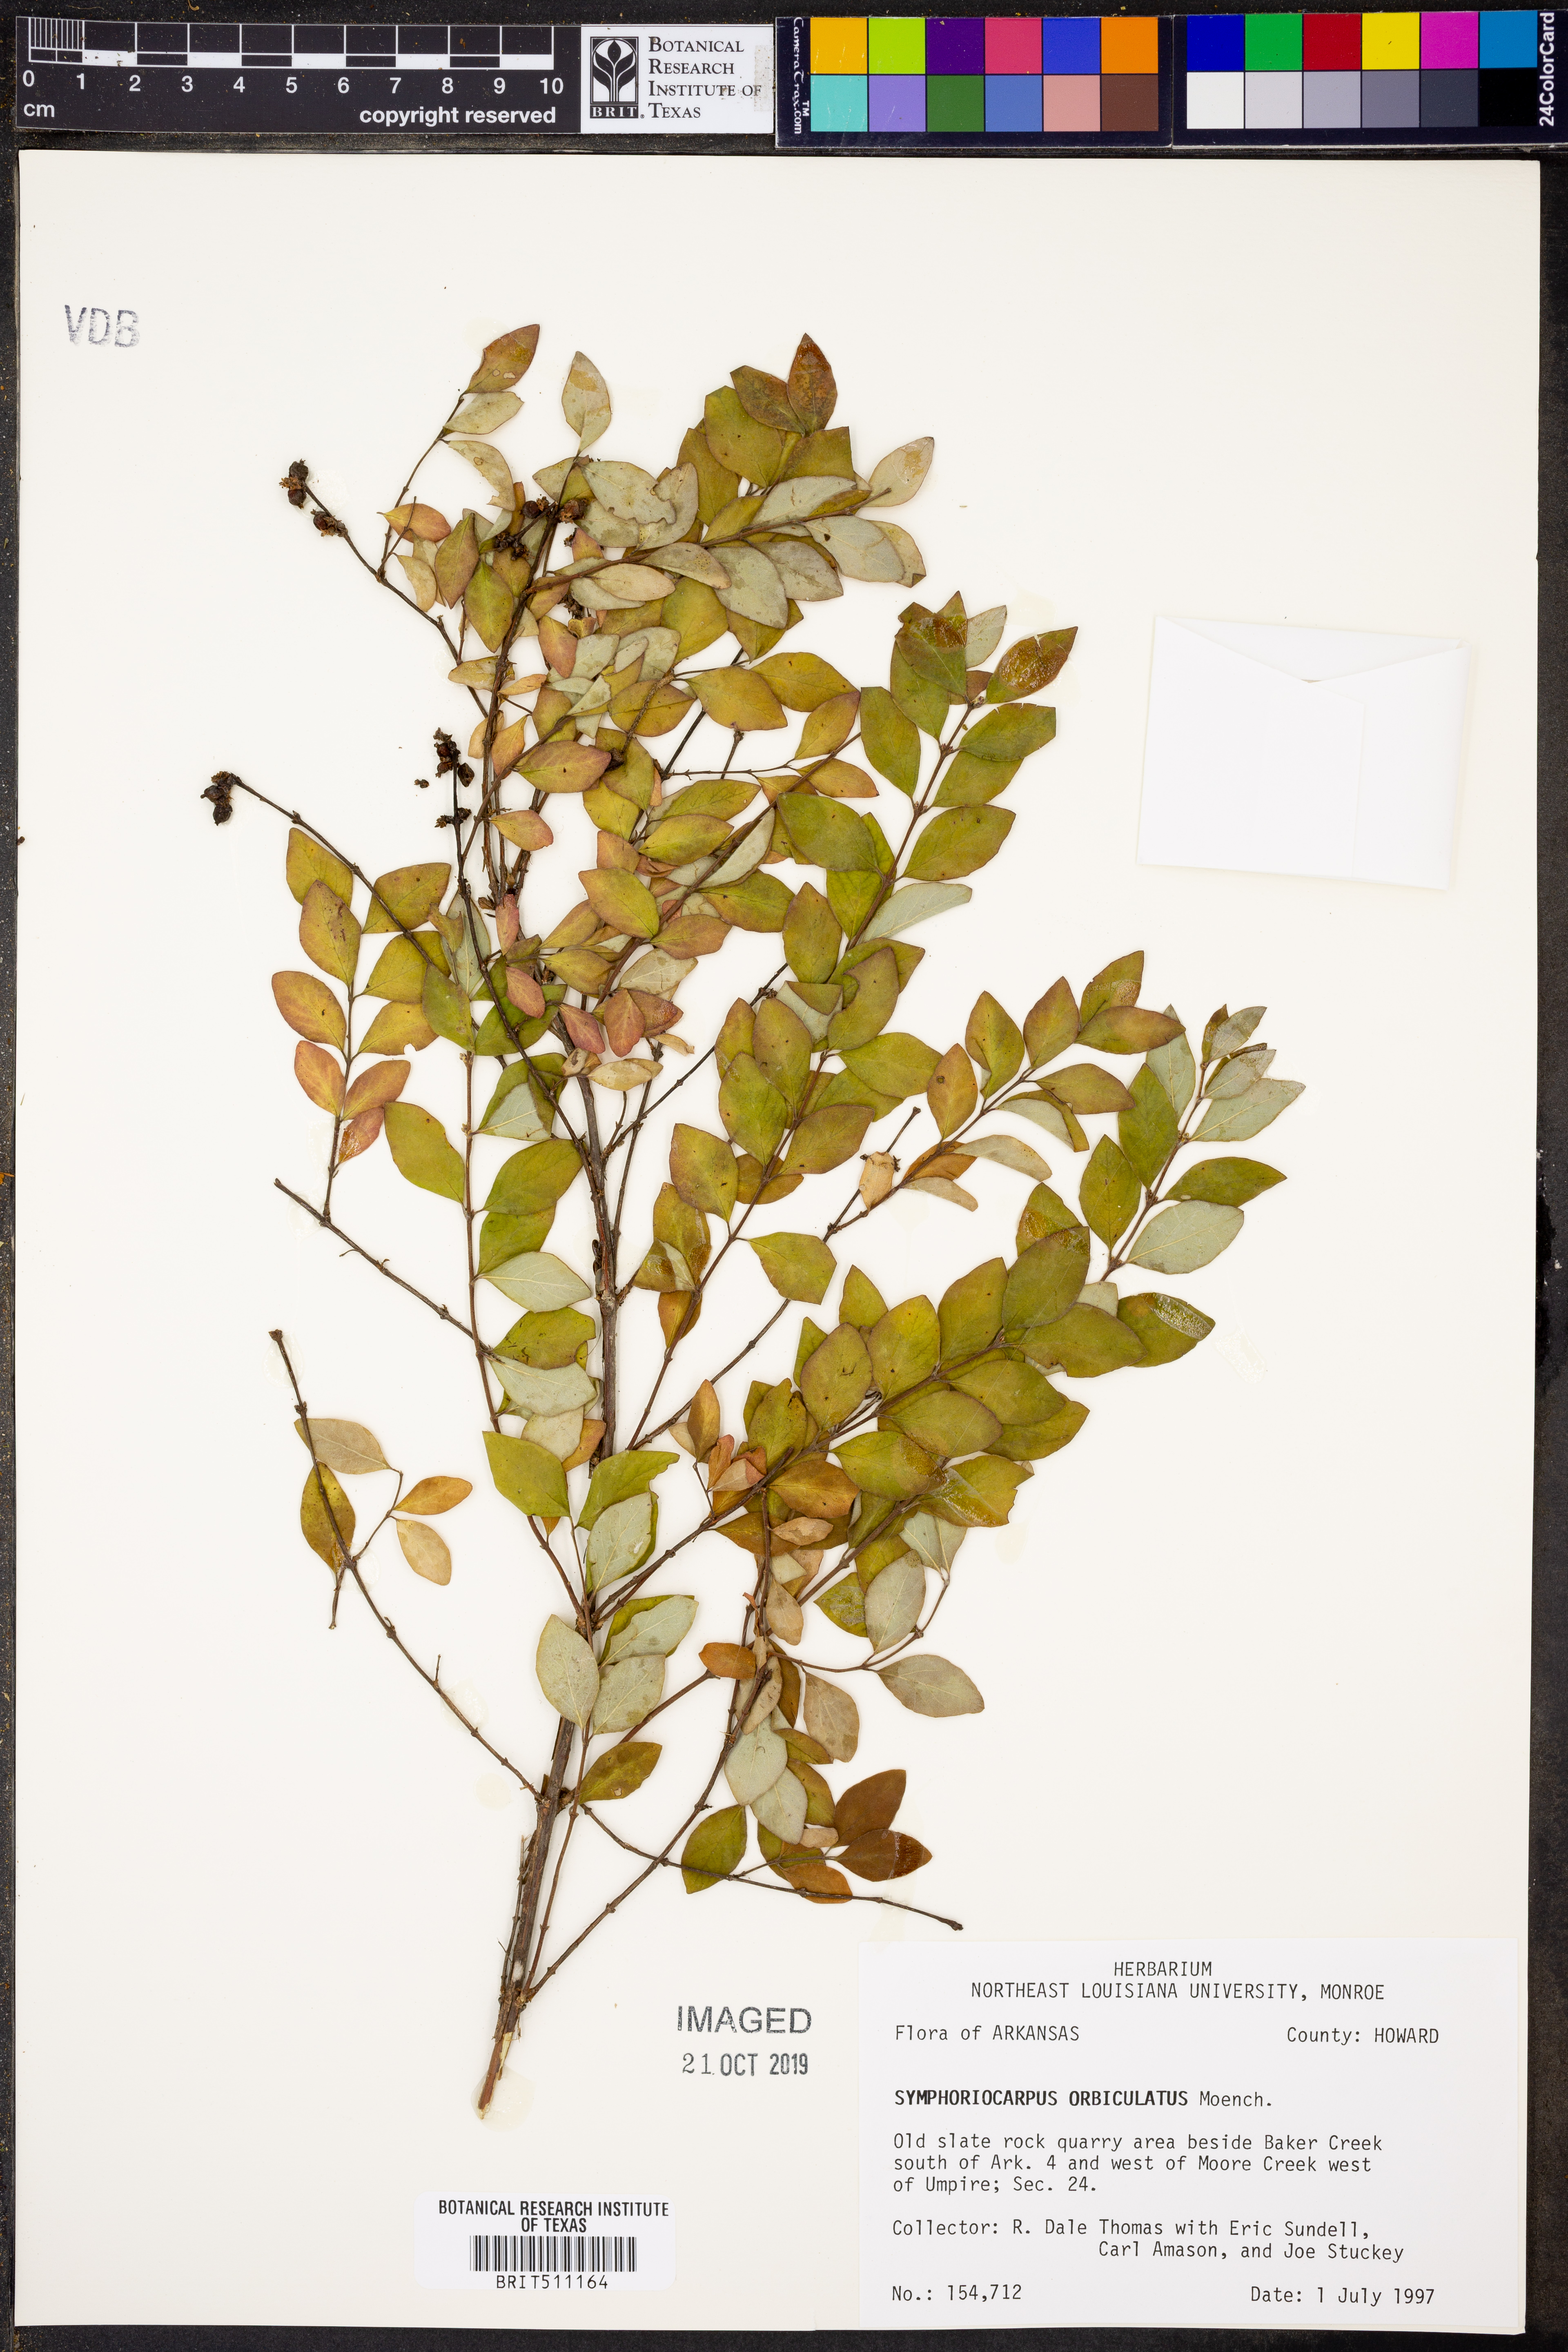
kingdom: Plantae
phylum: Tracheophyta
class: Magnoliopsida
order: Dipsacales
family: Caprifoliaceae
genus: Symphoricarpos
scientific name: Symphoricarpos orbiculatus
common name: Coralberry
